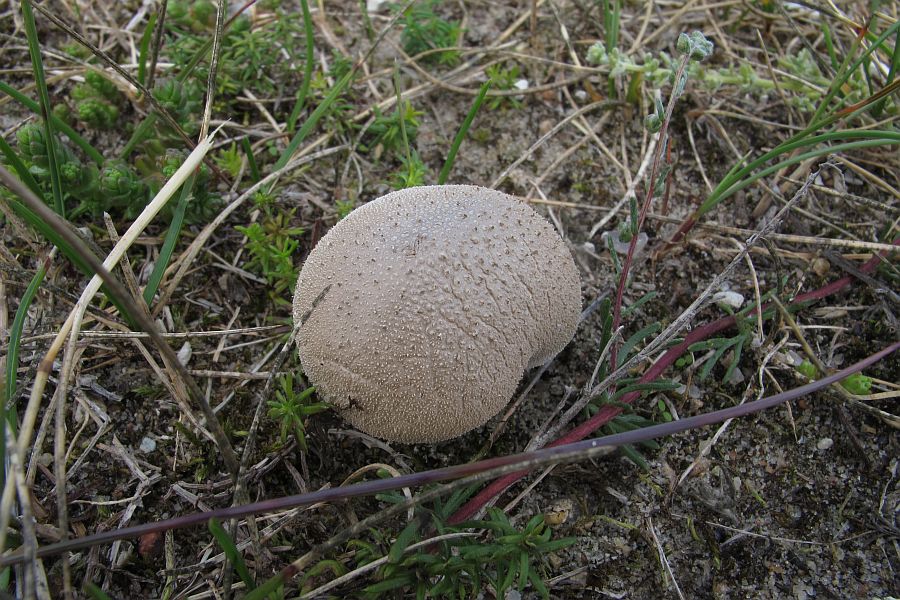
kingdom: Fungi
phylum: Basidiomycota
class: Agaricomycetes
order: Agaricales
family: Lycoperdaceae
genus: Lycoperdon
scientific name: Lycoperdon lividum
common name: mark-støvbold
